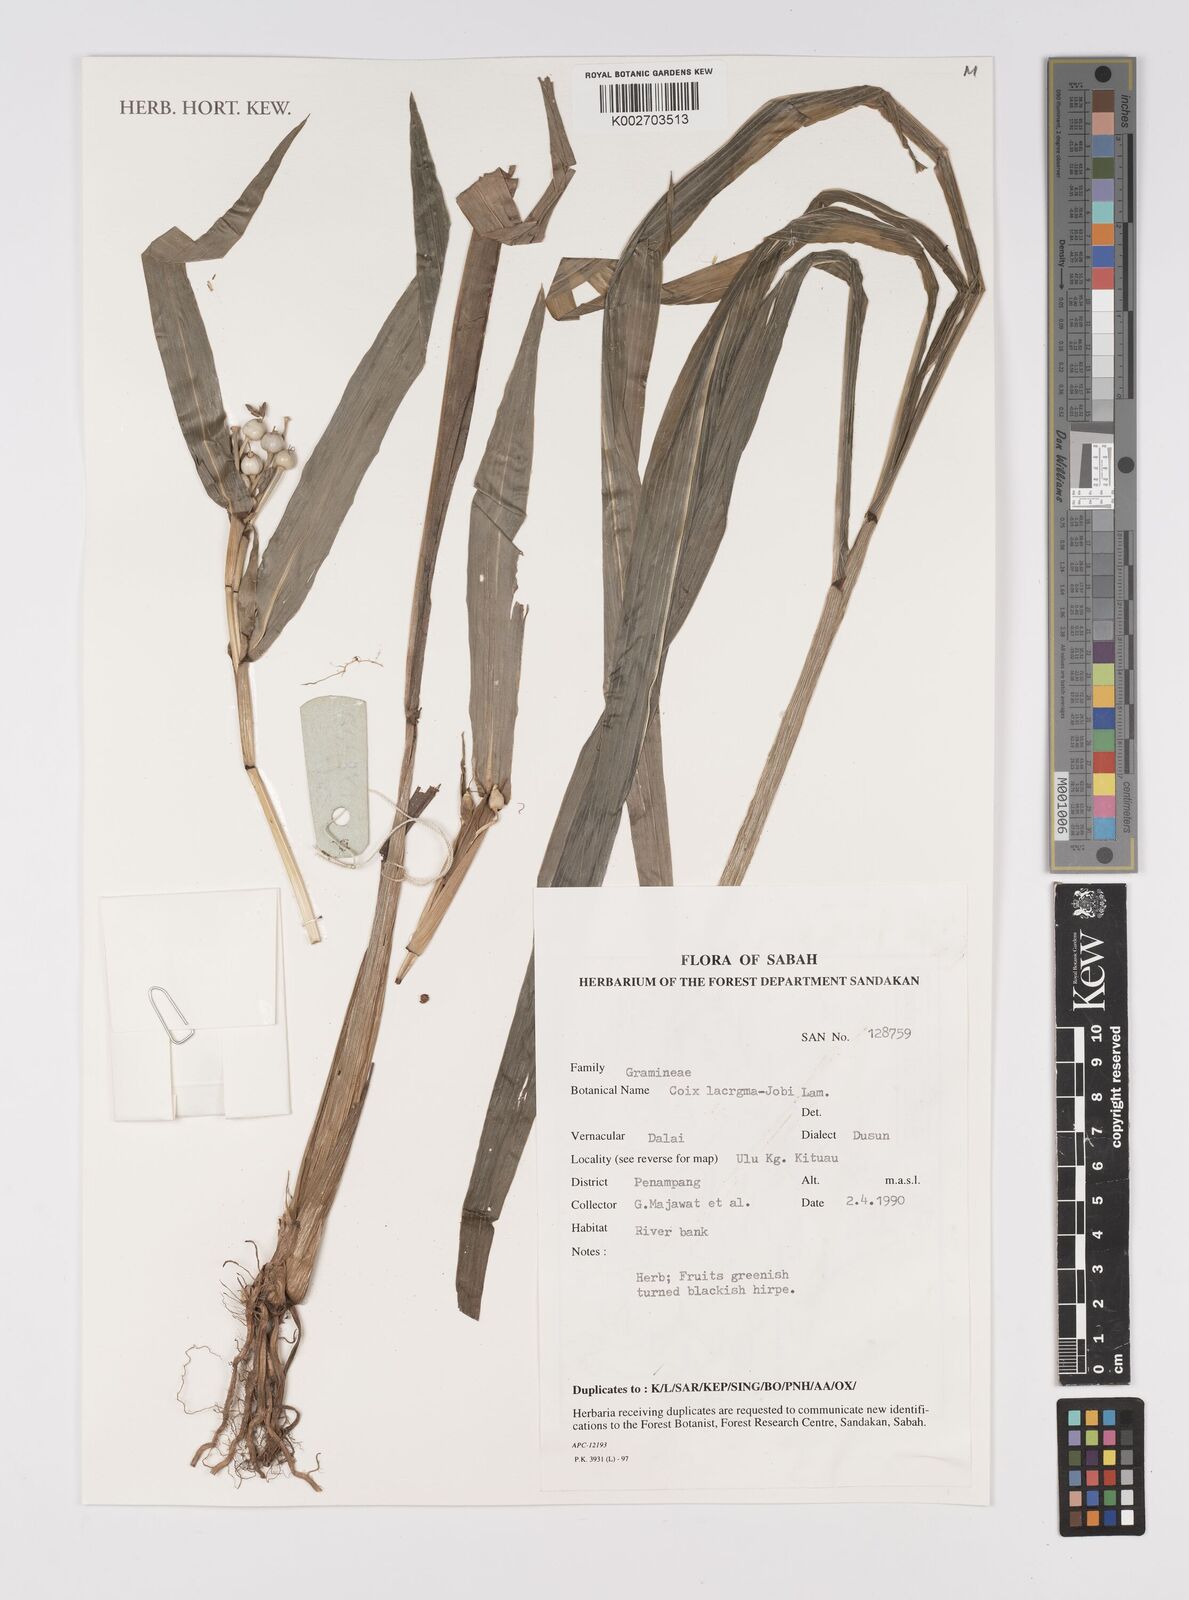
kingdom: Plantae
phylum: Tracheophyta
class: Liliopsida
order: Poales
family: Poaceae
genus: Coix
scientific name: Coix lacryma-jobi
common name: Job's tears
